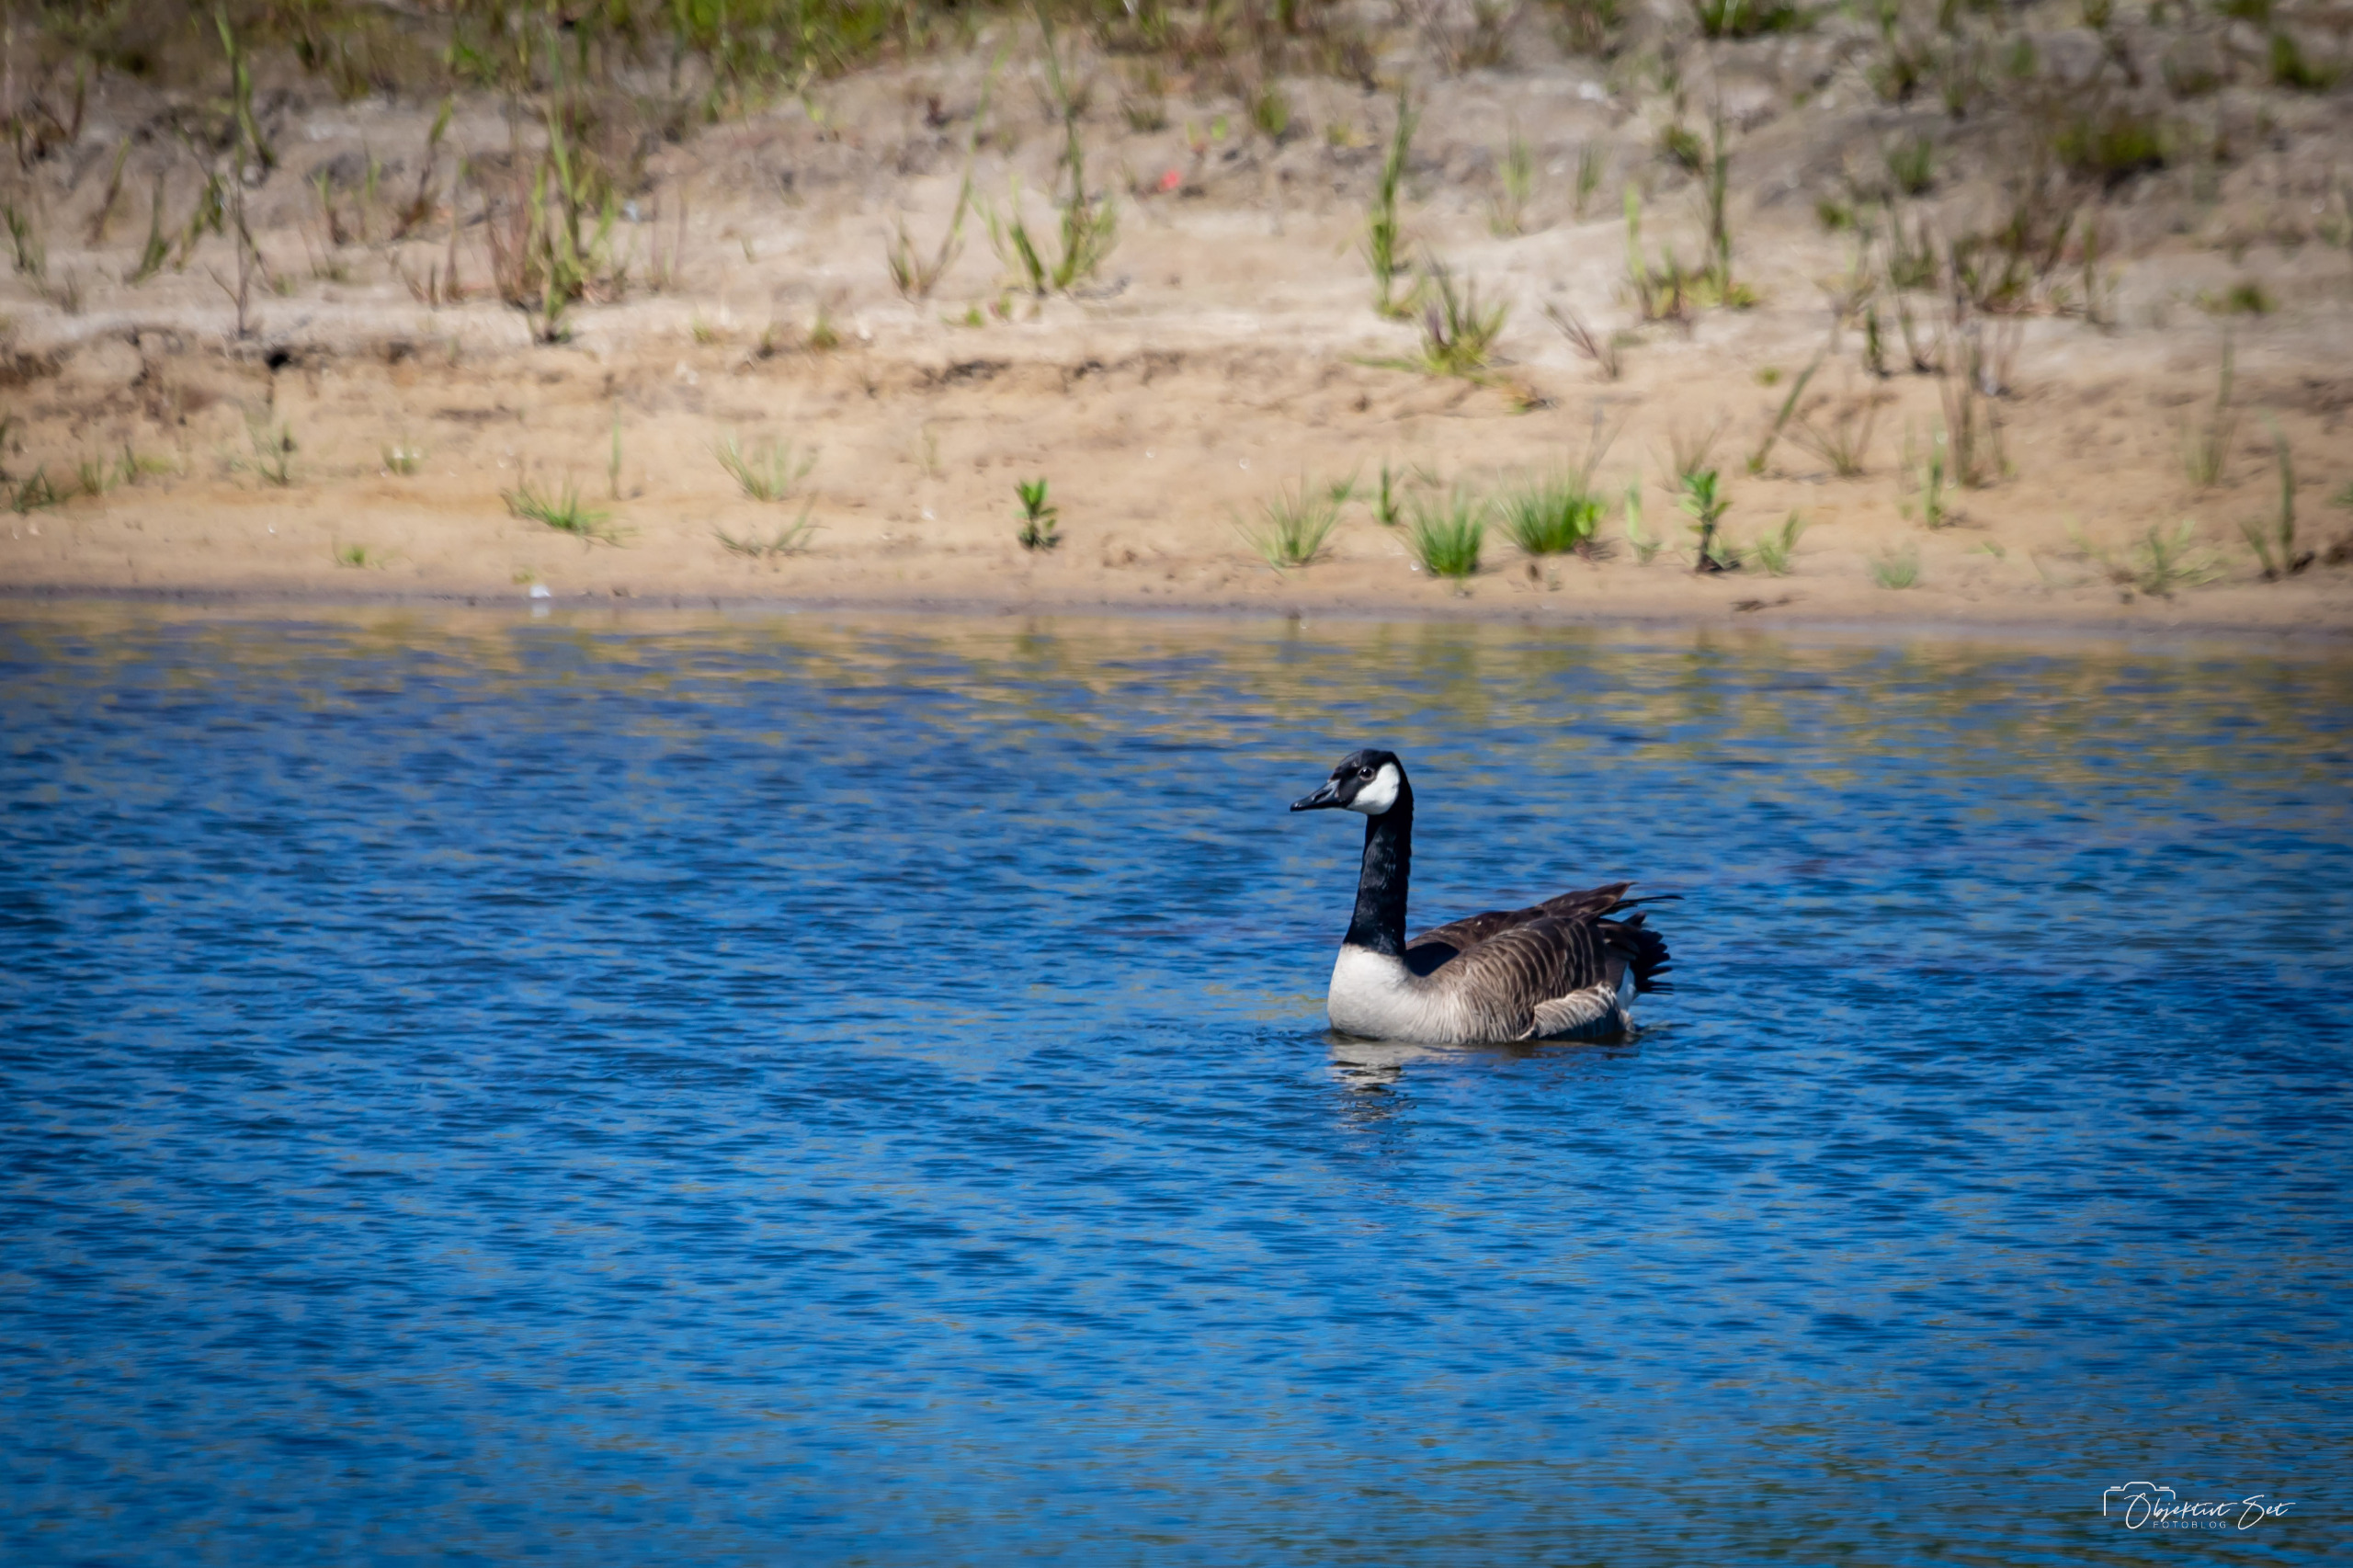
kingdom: Animalia
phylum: Chordata
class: Aves
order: Anseriformes
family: Anatidae
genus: Branta
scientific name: Branta canadensis
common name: Canadagås
